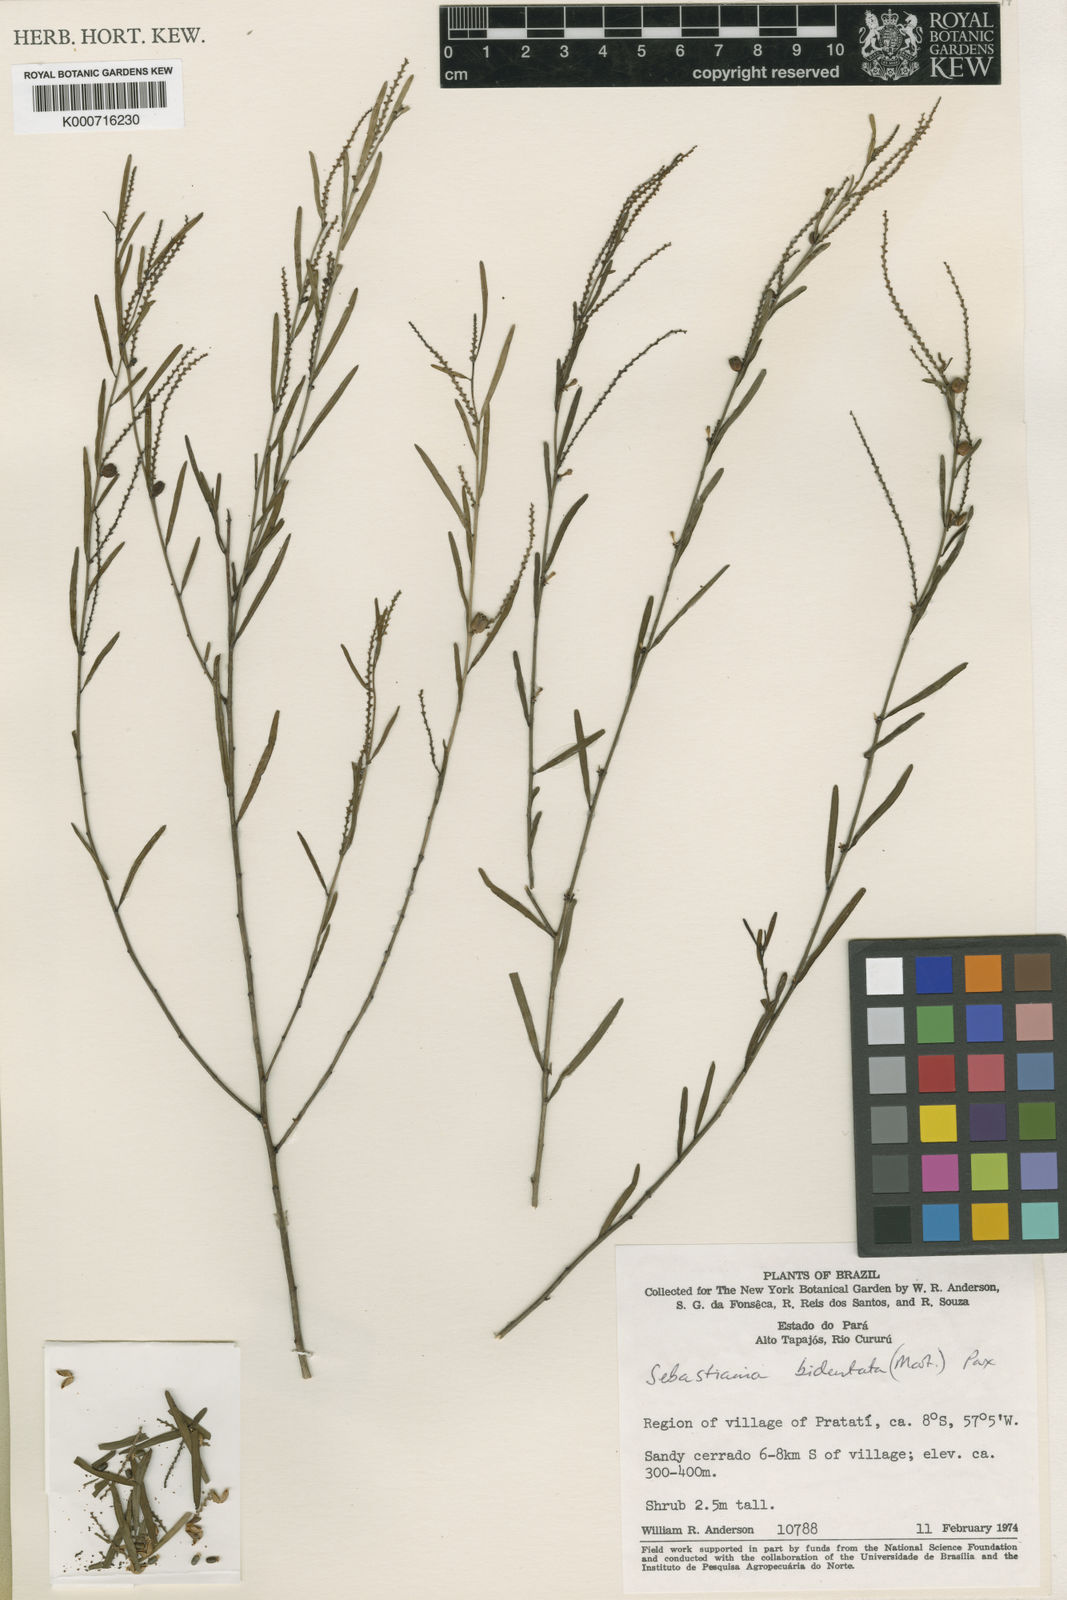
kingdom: Plantae
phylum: Tracheophyta
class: Magnoliopsida
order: Malpighiales
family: Euphorbiaceae
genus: Microstachys
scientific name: Microstachys bidentata
